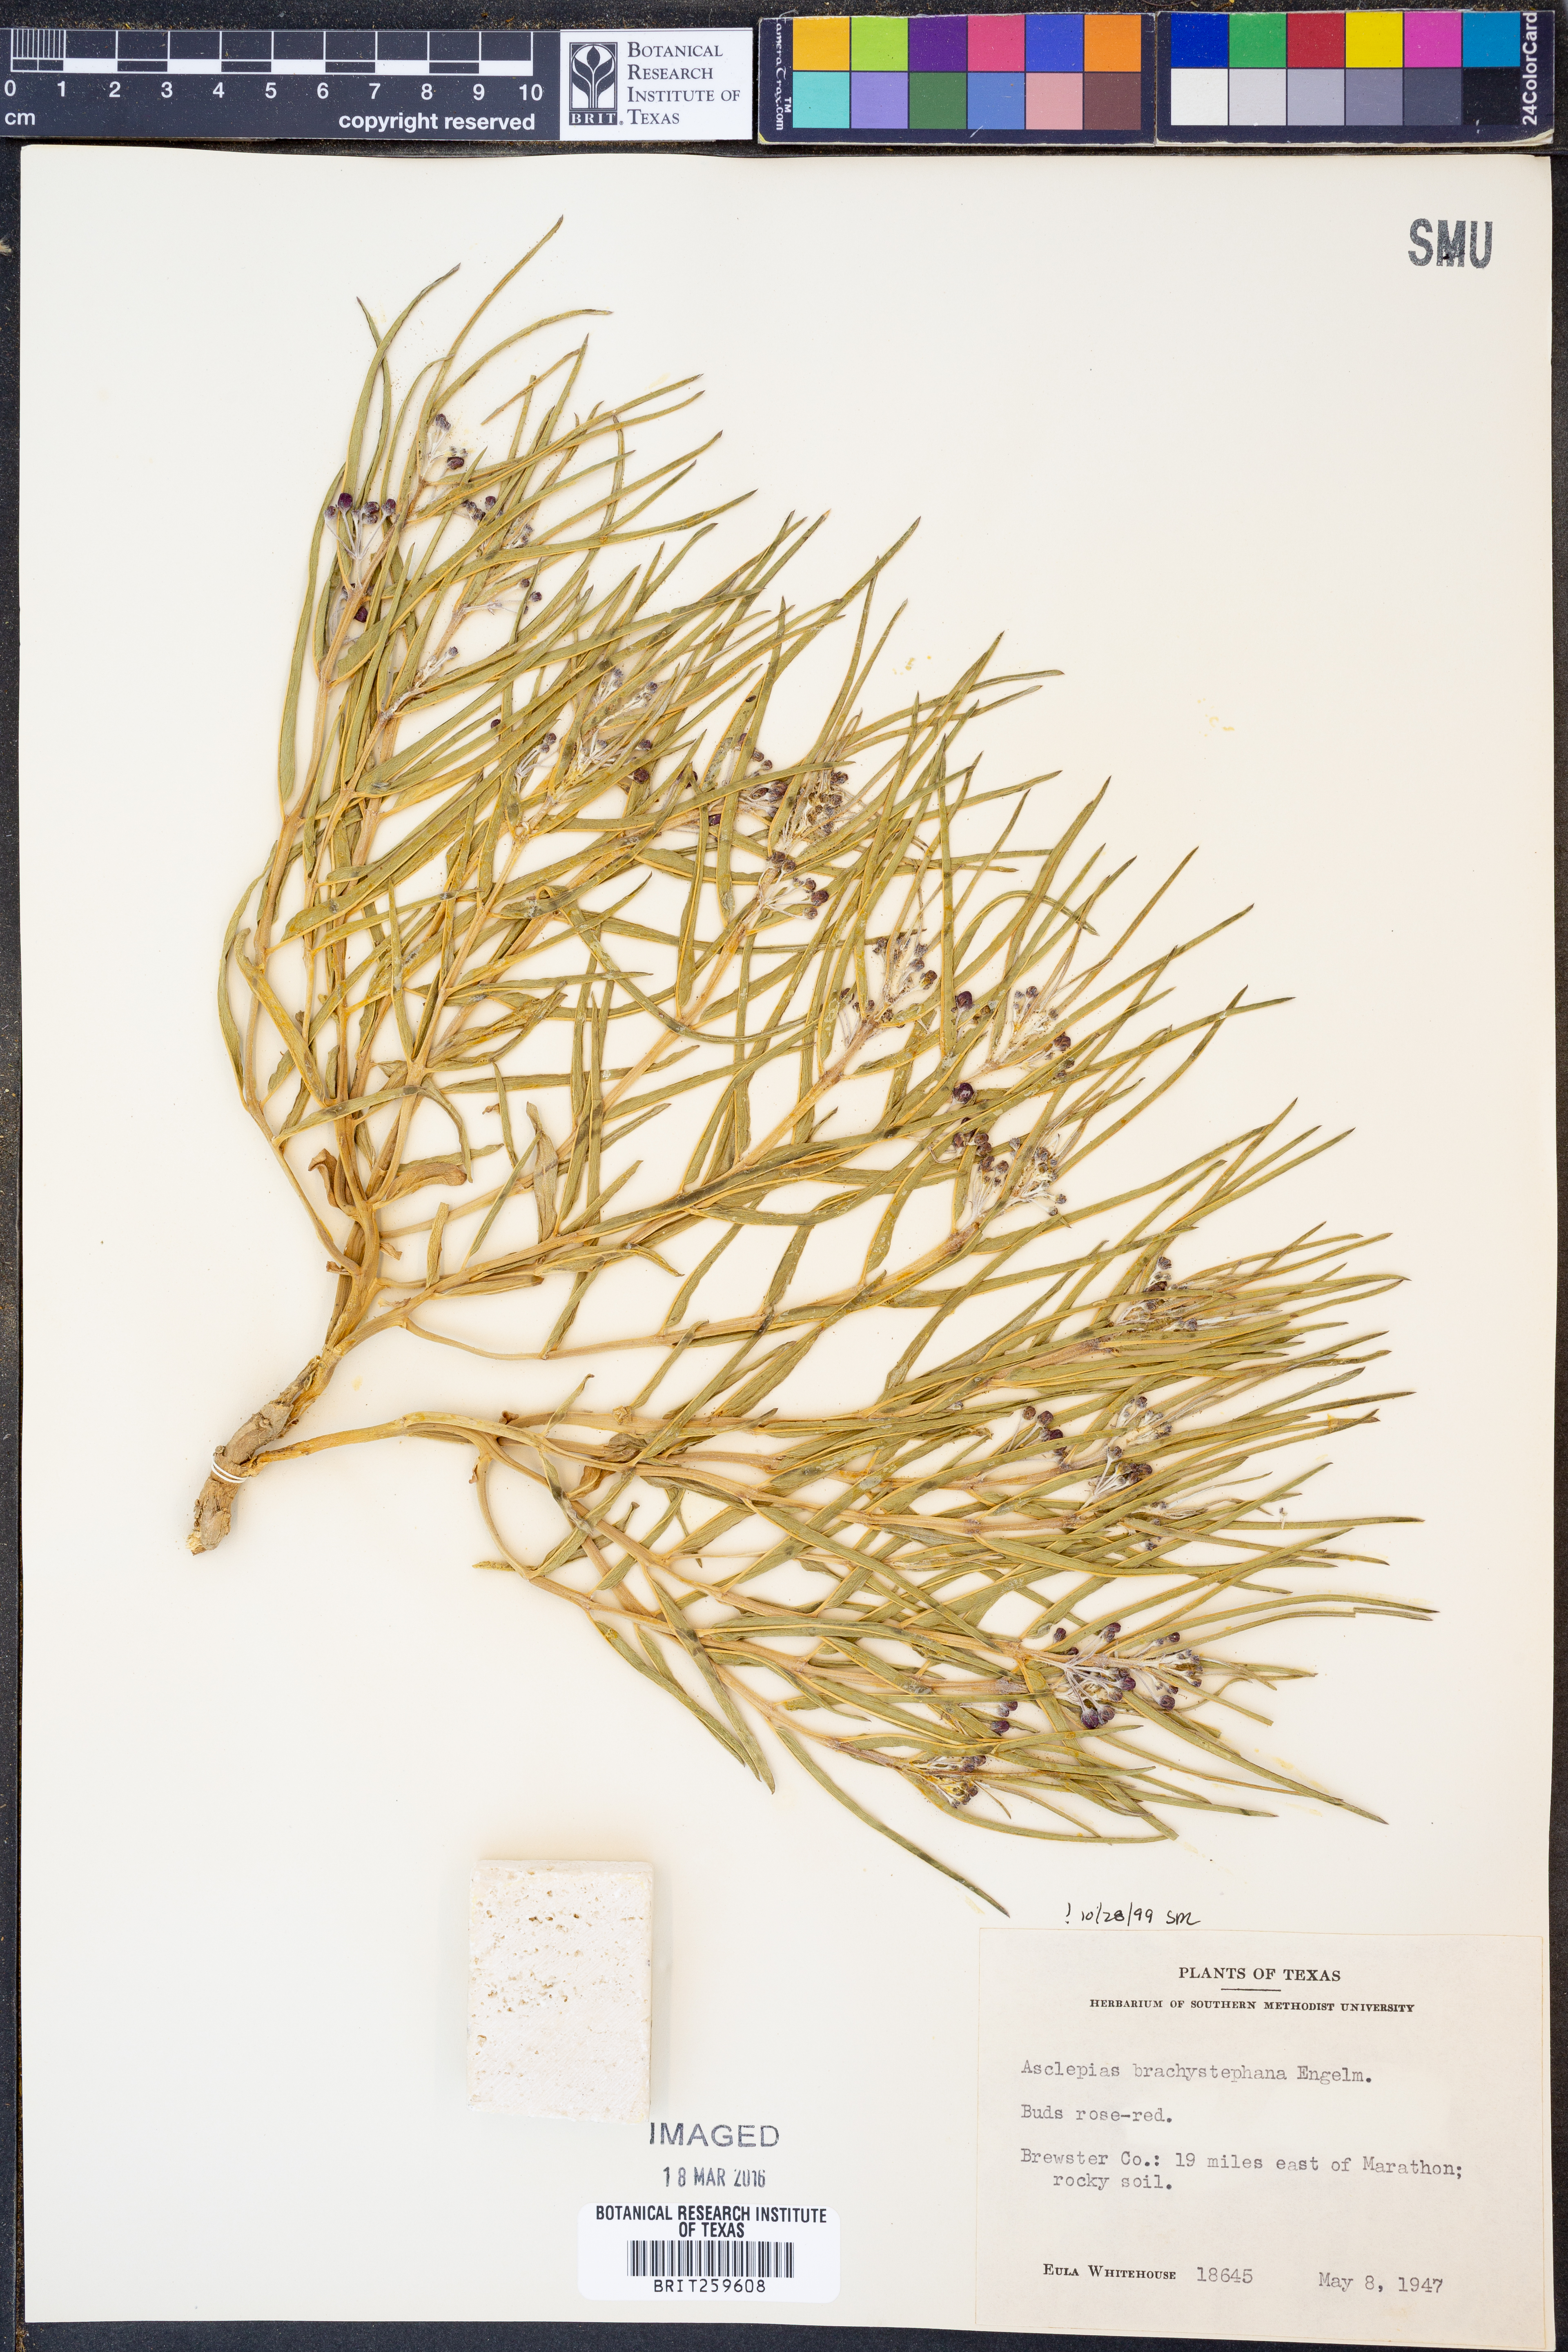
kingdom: Plantae
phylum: Tracheophyta
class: Magnoliopsida
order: Gentianales
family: Apocynaceae
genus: Asclepias
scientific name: Asclepias brachystephana
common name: Shortcrown milkweed
